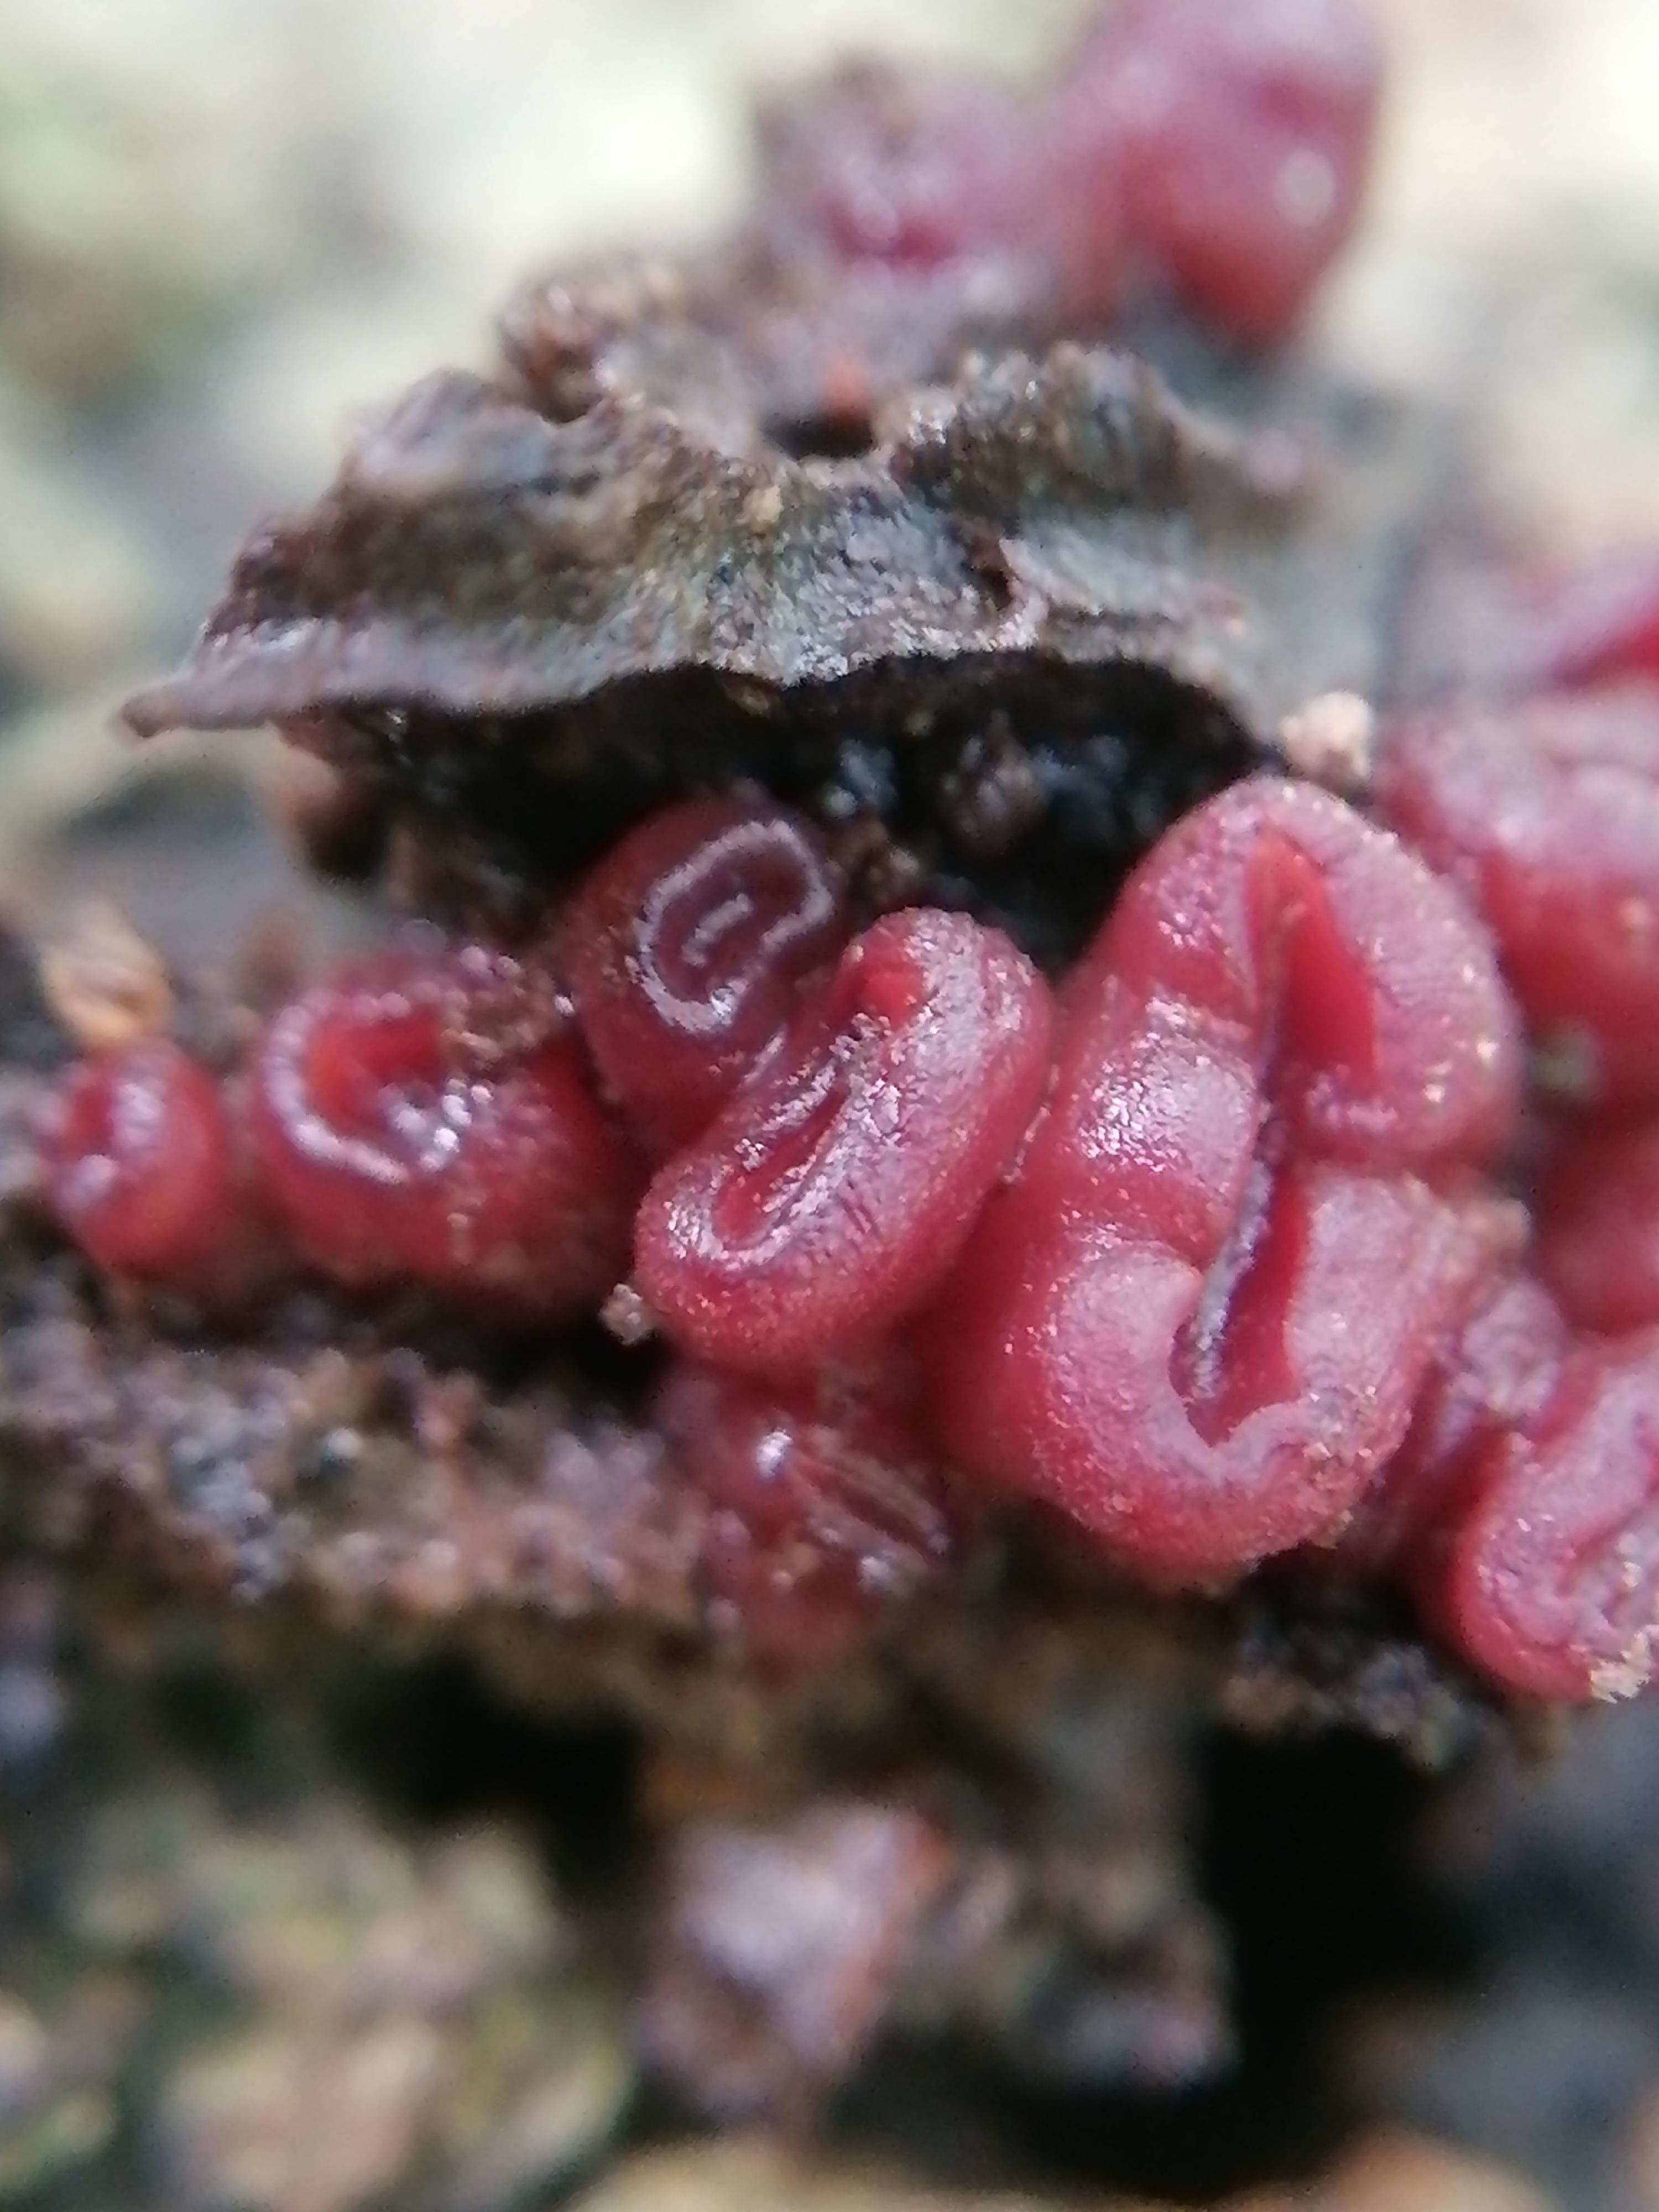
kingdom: Fungi
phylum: Ascomycota
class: Leotiomycetes
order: Helotiales
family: Gelatinodiscaceae
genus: Ascocoryne
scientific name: Ascocoryne sarcoides
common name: rødlilla sejskive
